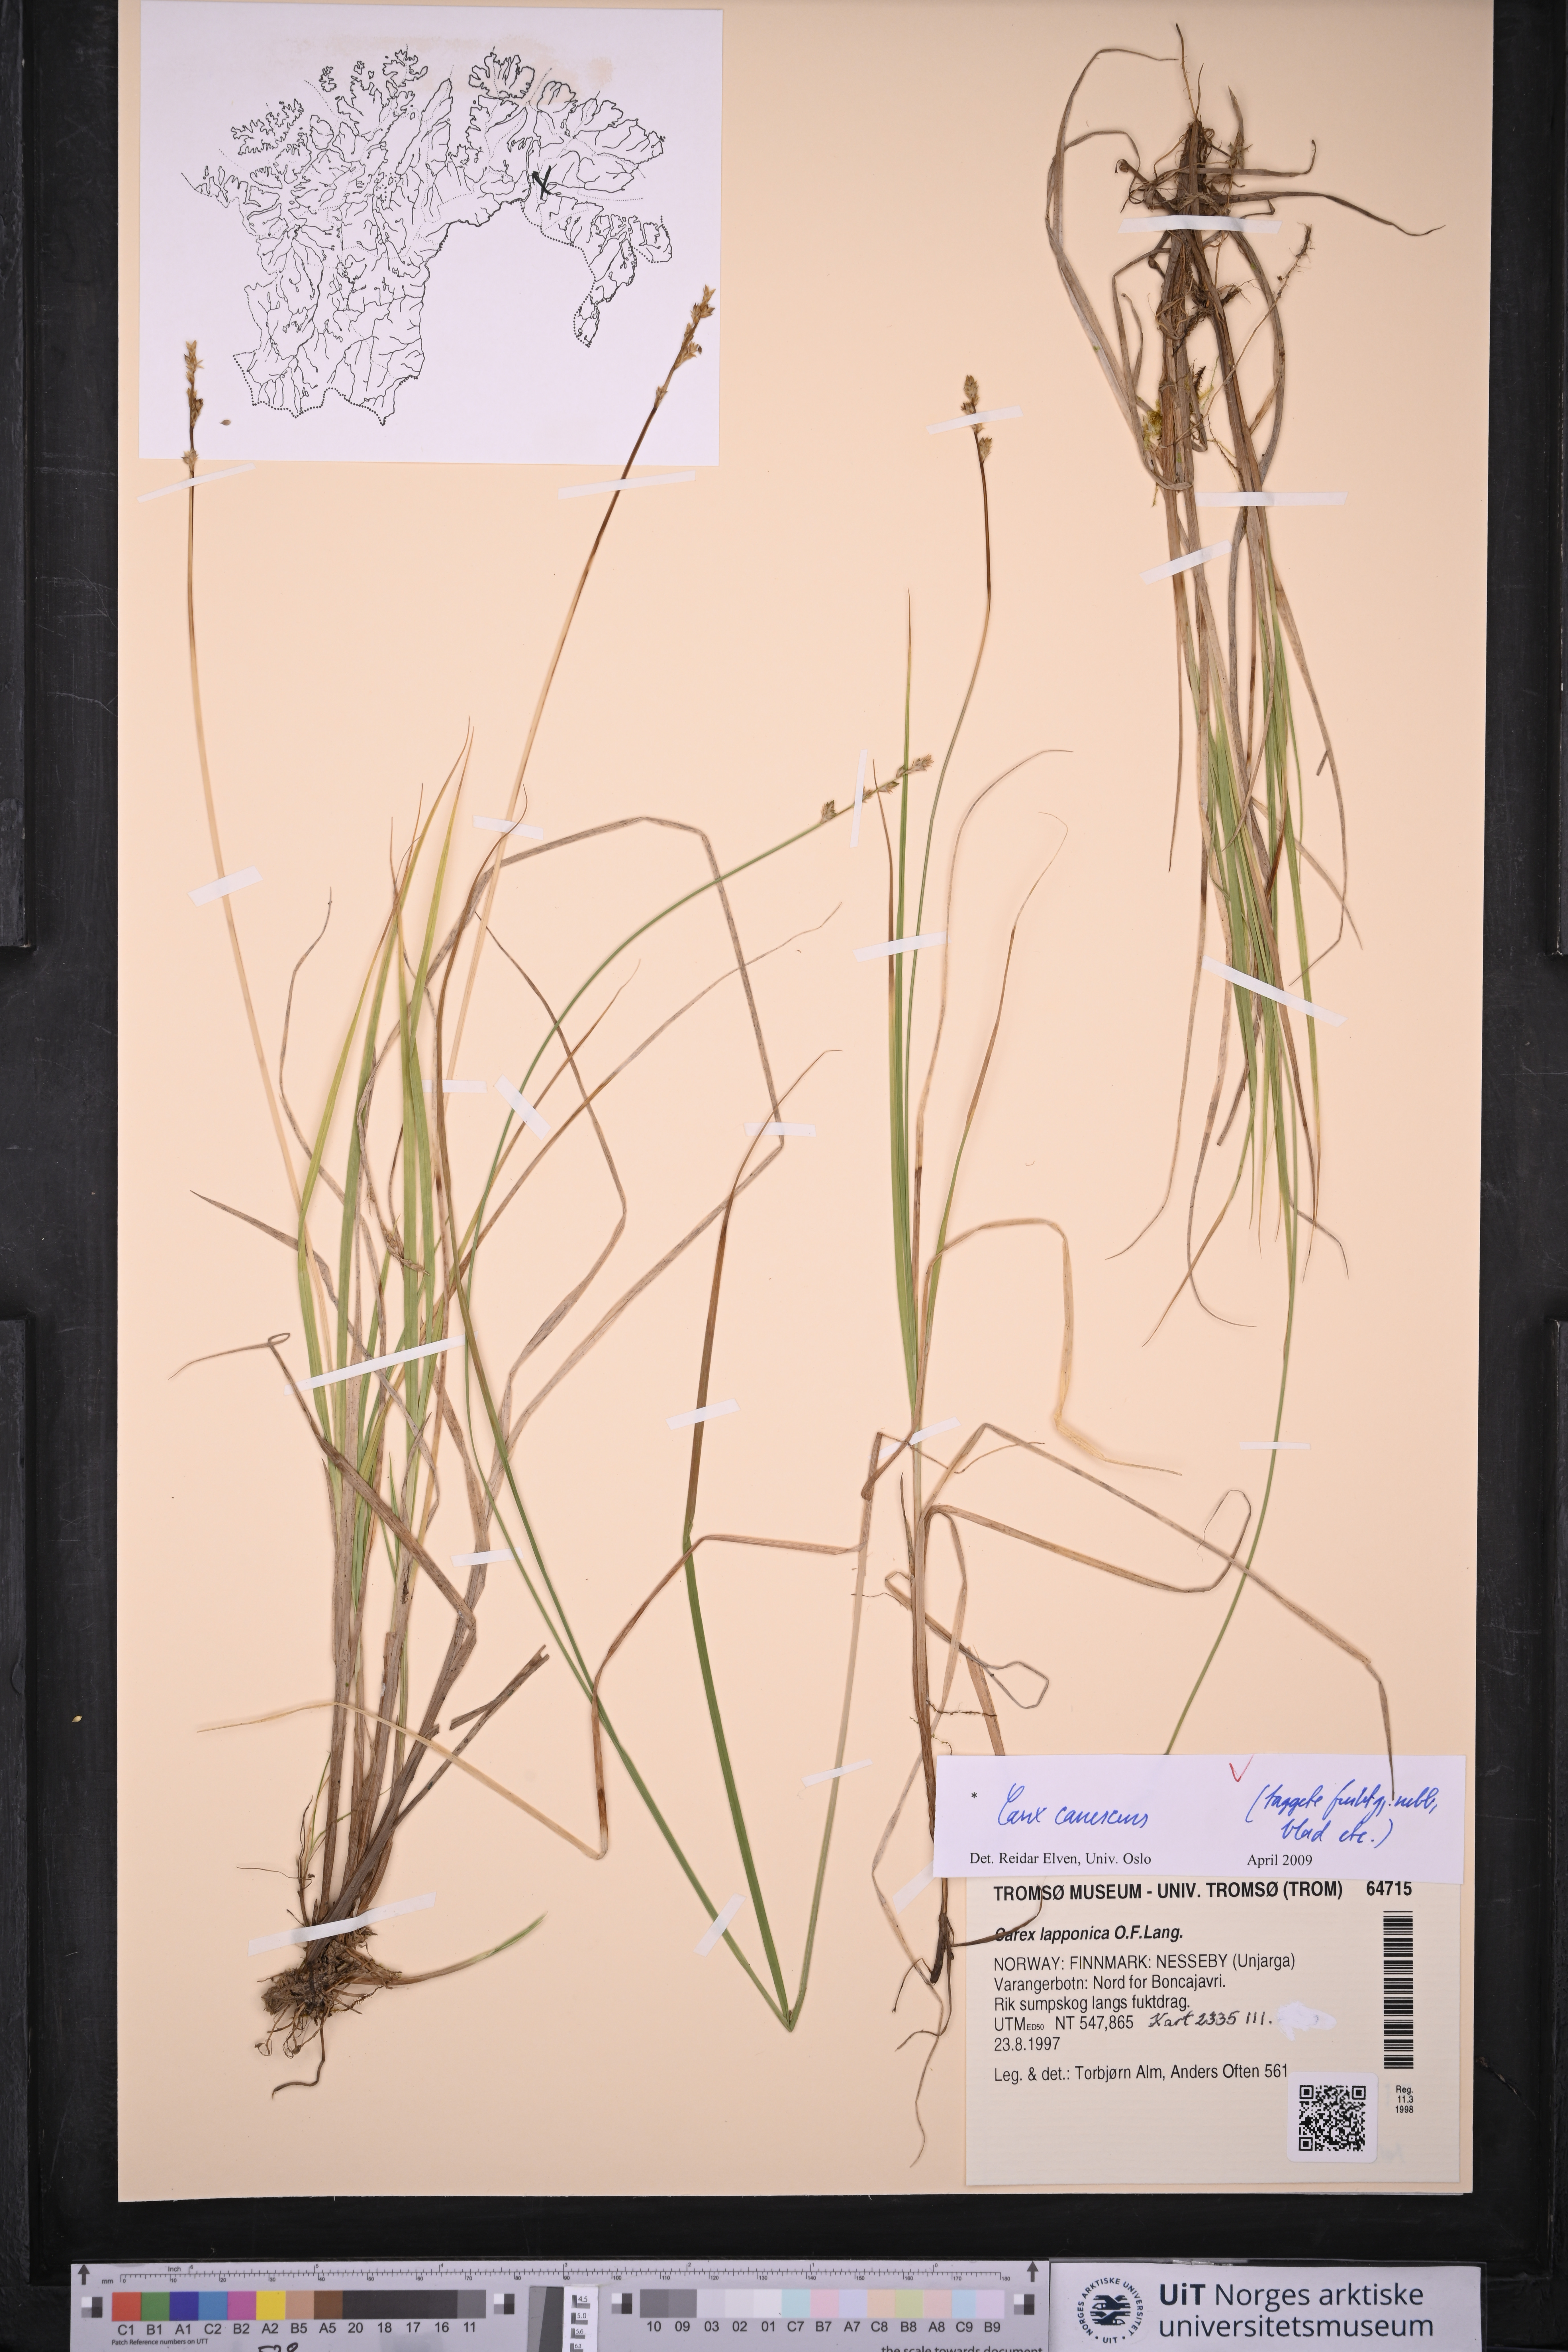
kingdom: Plantae
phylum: Tracheophyta
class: Liliopsida
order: Poales
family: Cyperaceae
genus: Carex
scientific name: Carex canescens
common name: White sedge
